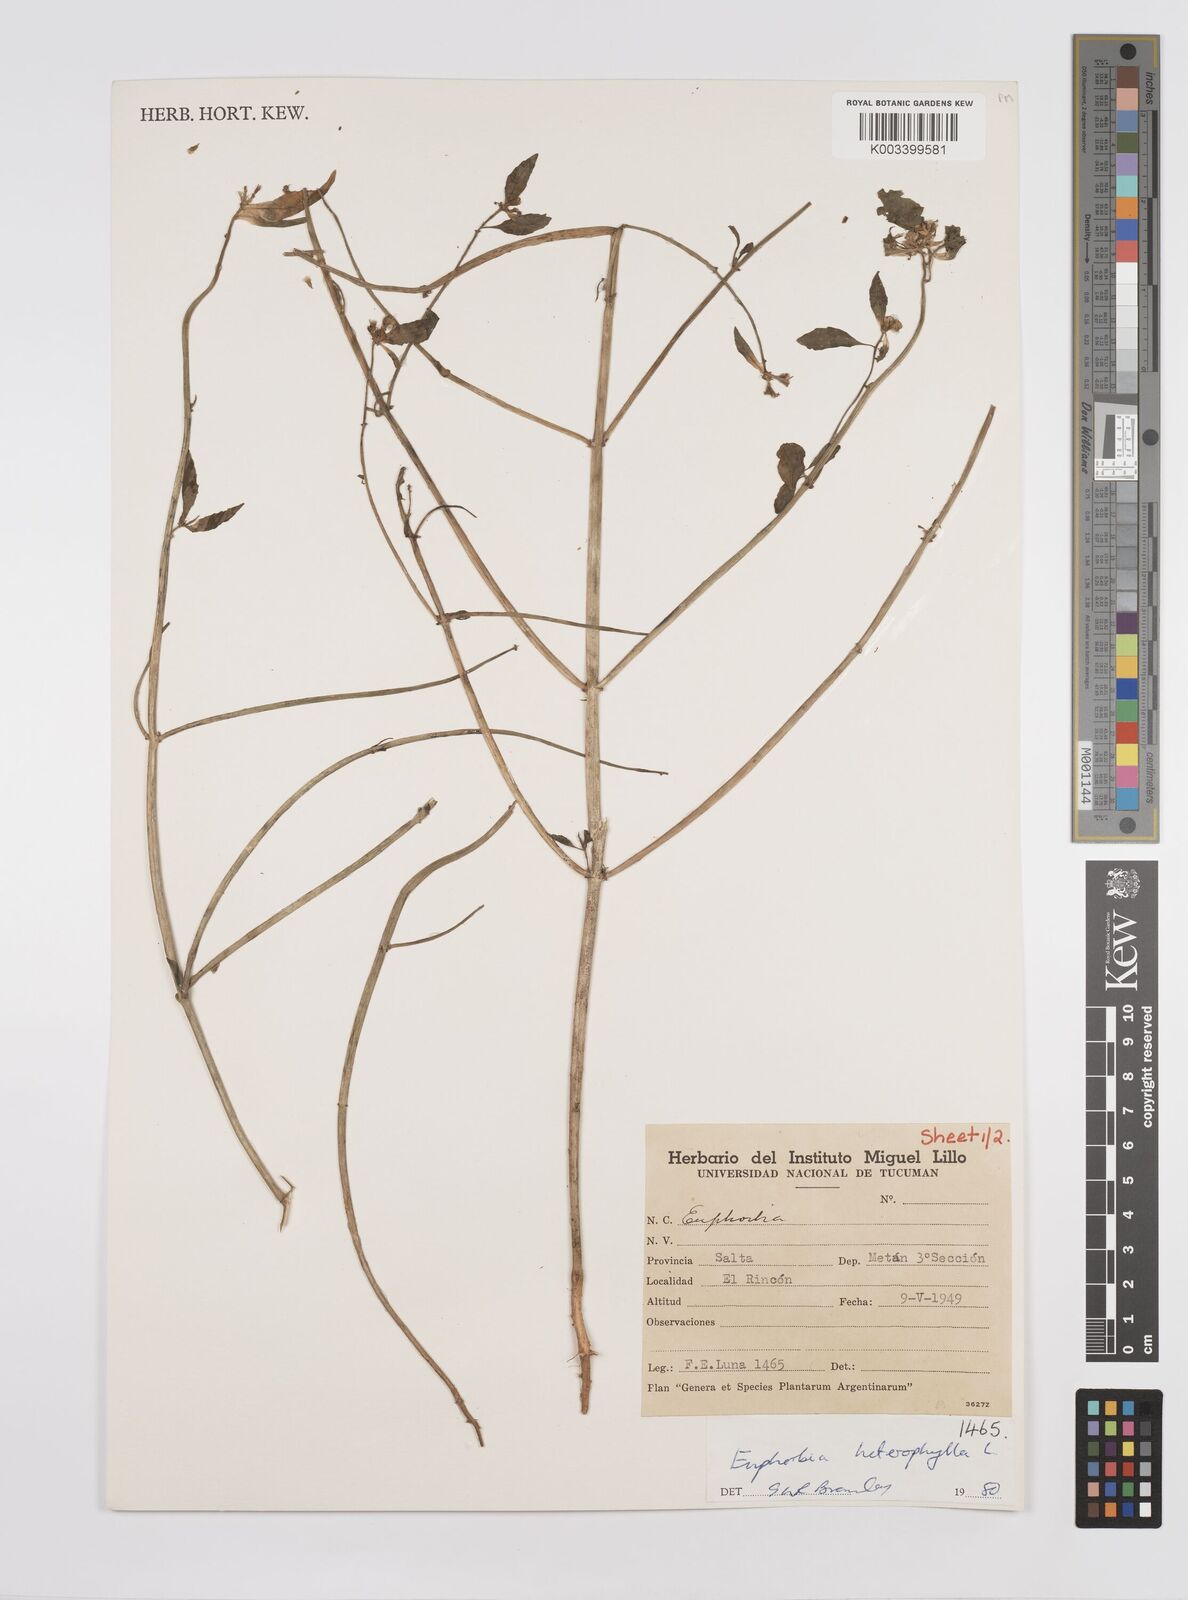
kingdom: Plantae
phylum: Tracheophyta
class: Magnoliopsida
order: Malpighiales
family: Euphorbiaceae
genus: Euphorbia
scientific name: Euphorbia
